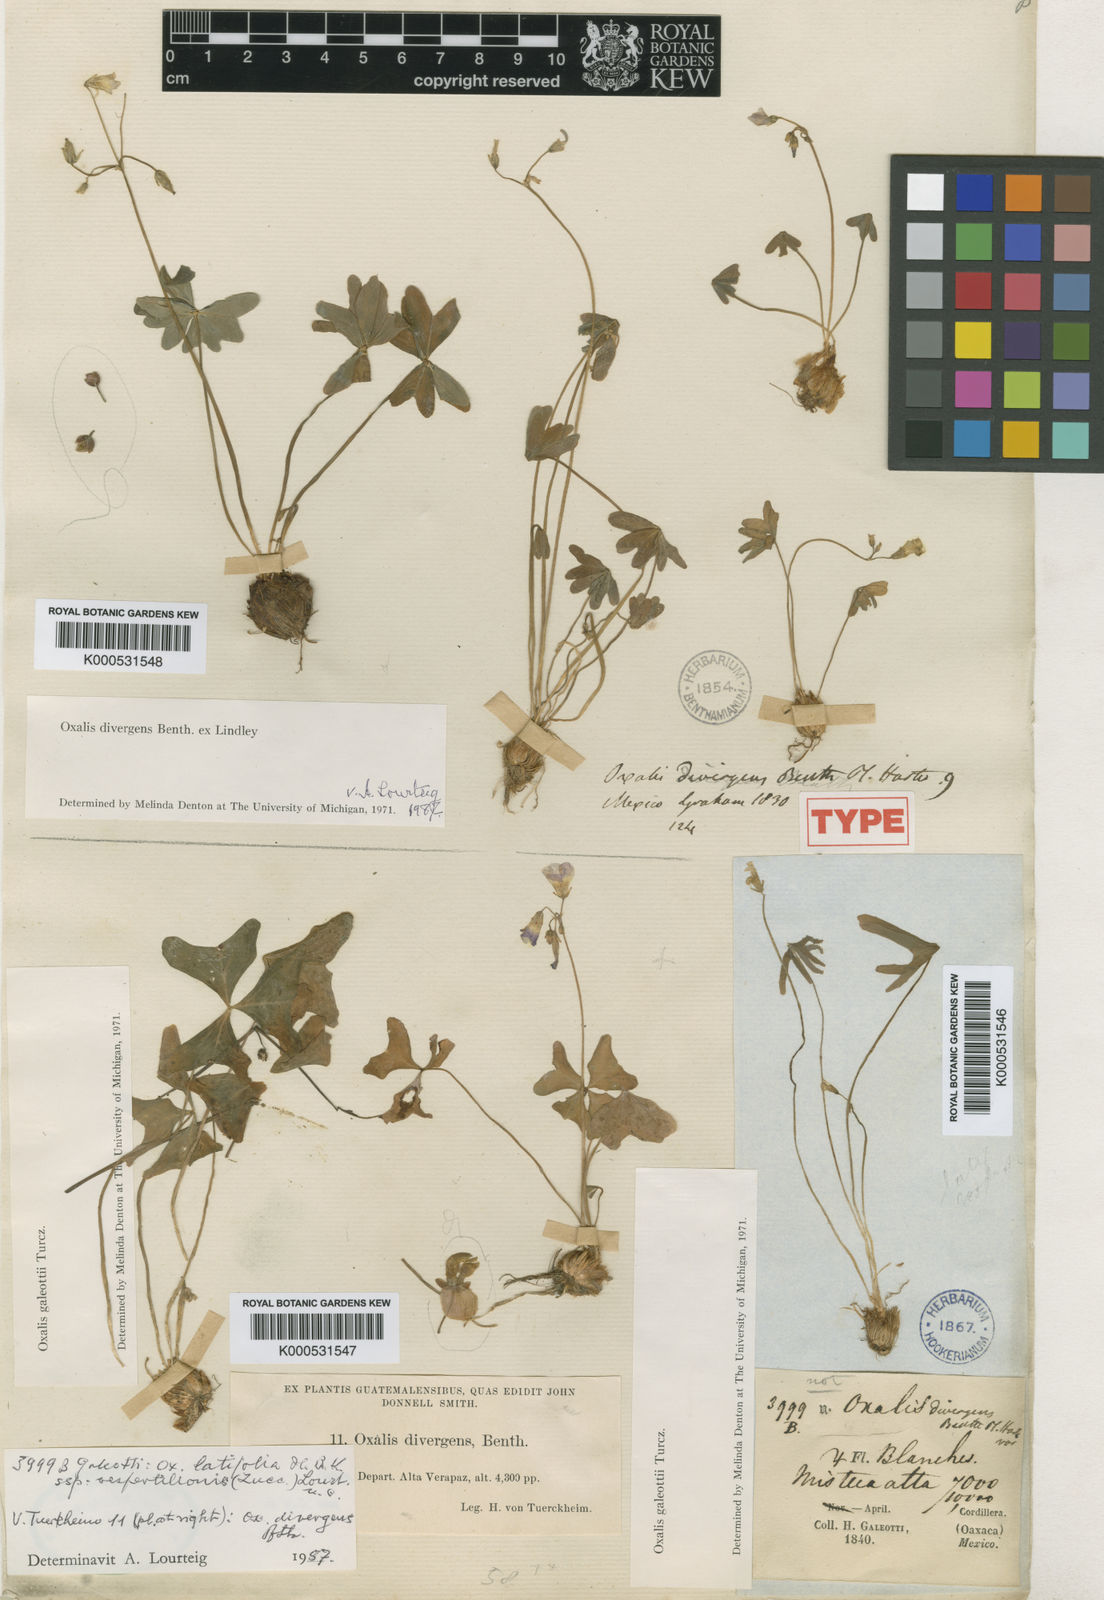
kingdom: Plantae
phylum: Tracheophyta
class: Magnoliopsida
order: Oxalidales
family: Oxalidaceae
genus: Oxalis
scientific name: Oxalis divergens
